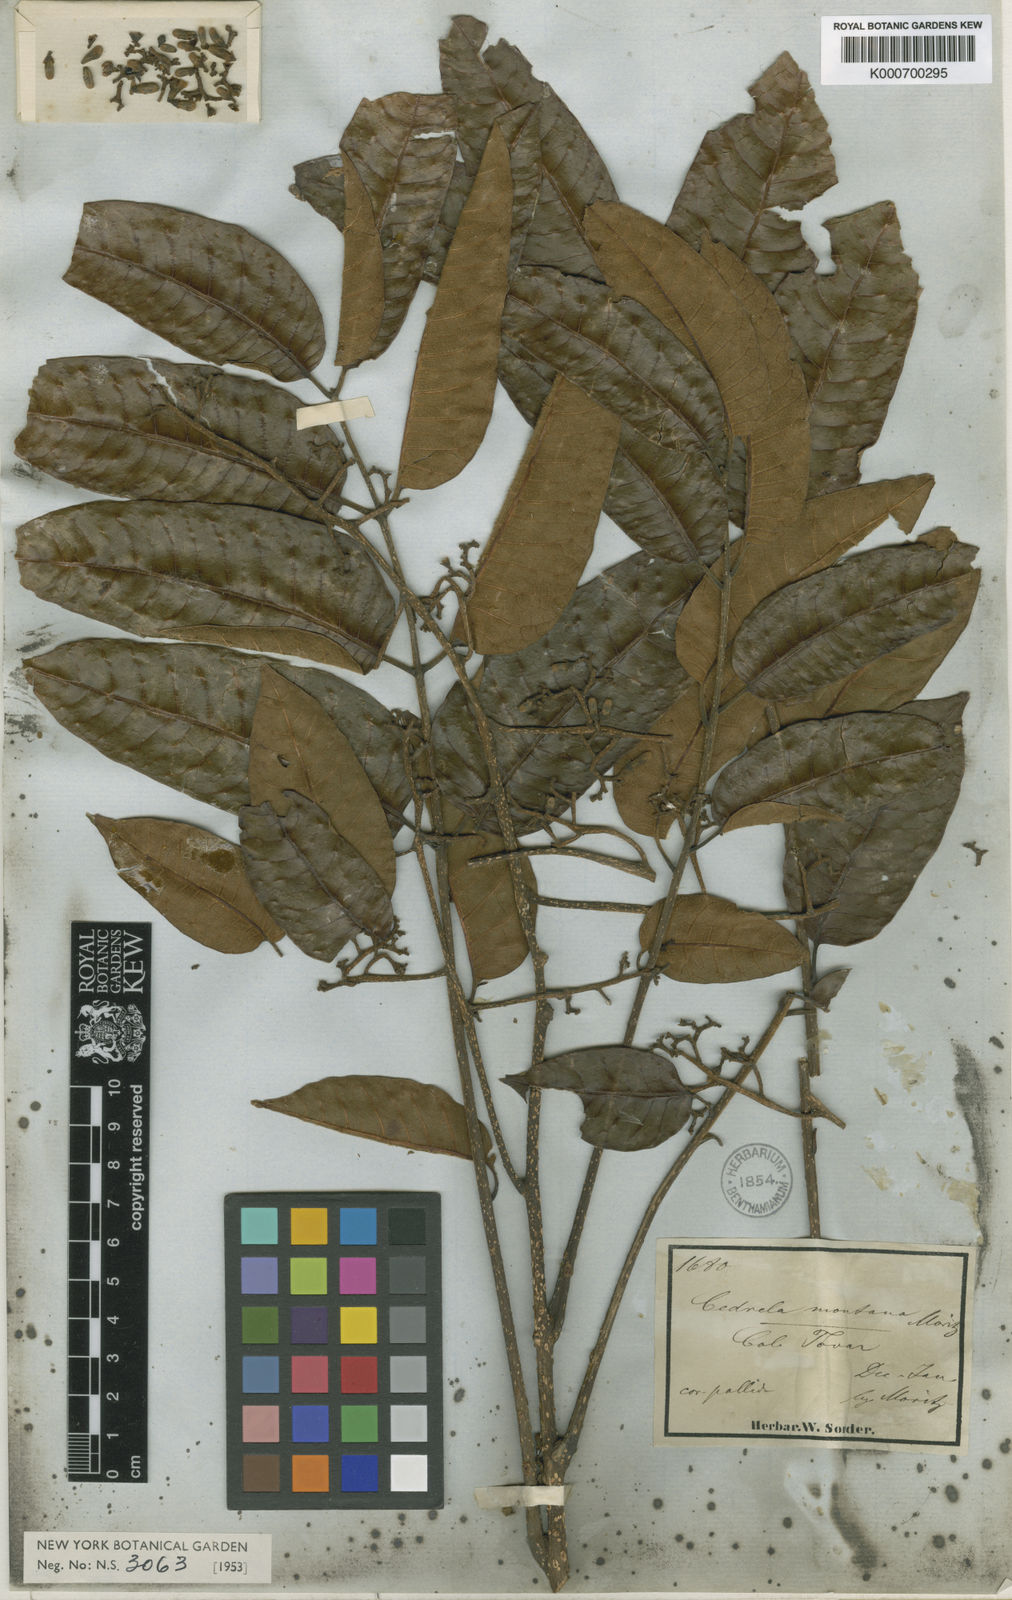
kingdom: Plantae
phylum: Tracheophyta
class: Magnoliopsida
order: Sapindales
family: Meliaceae
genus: Cedrela
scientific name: Cedrela
